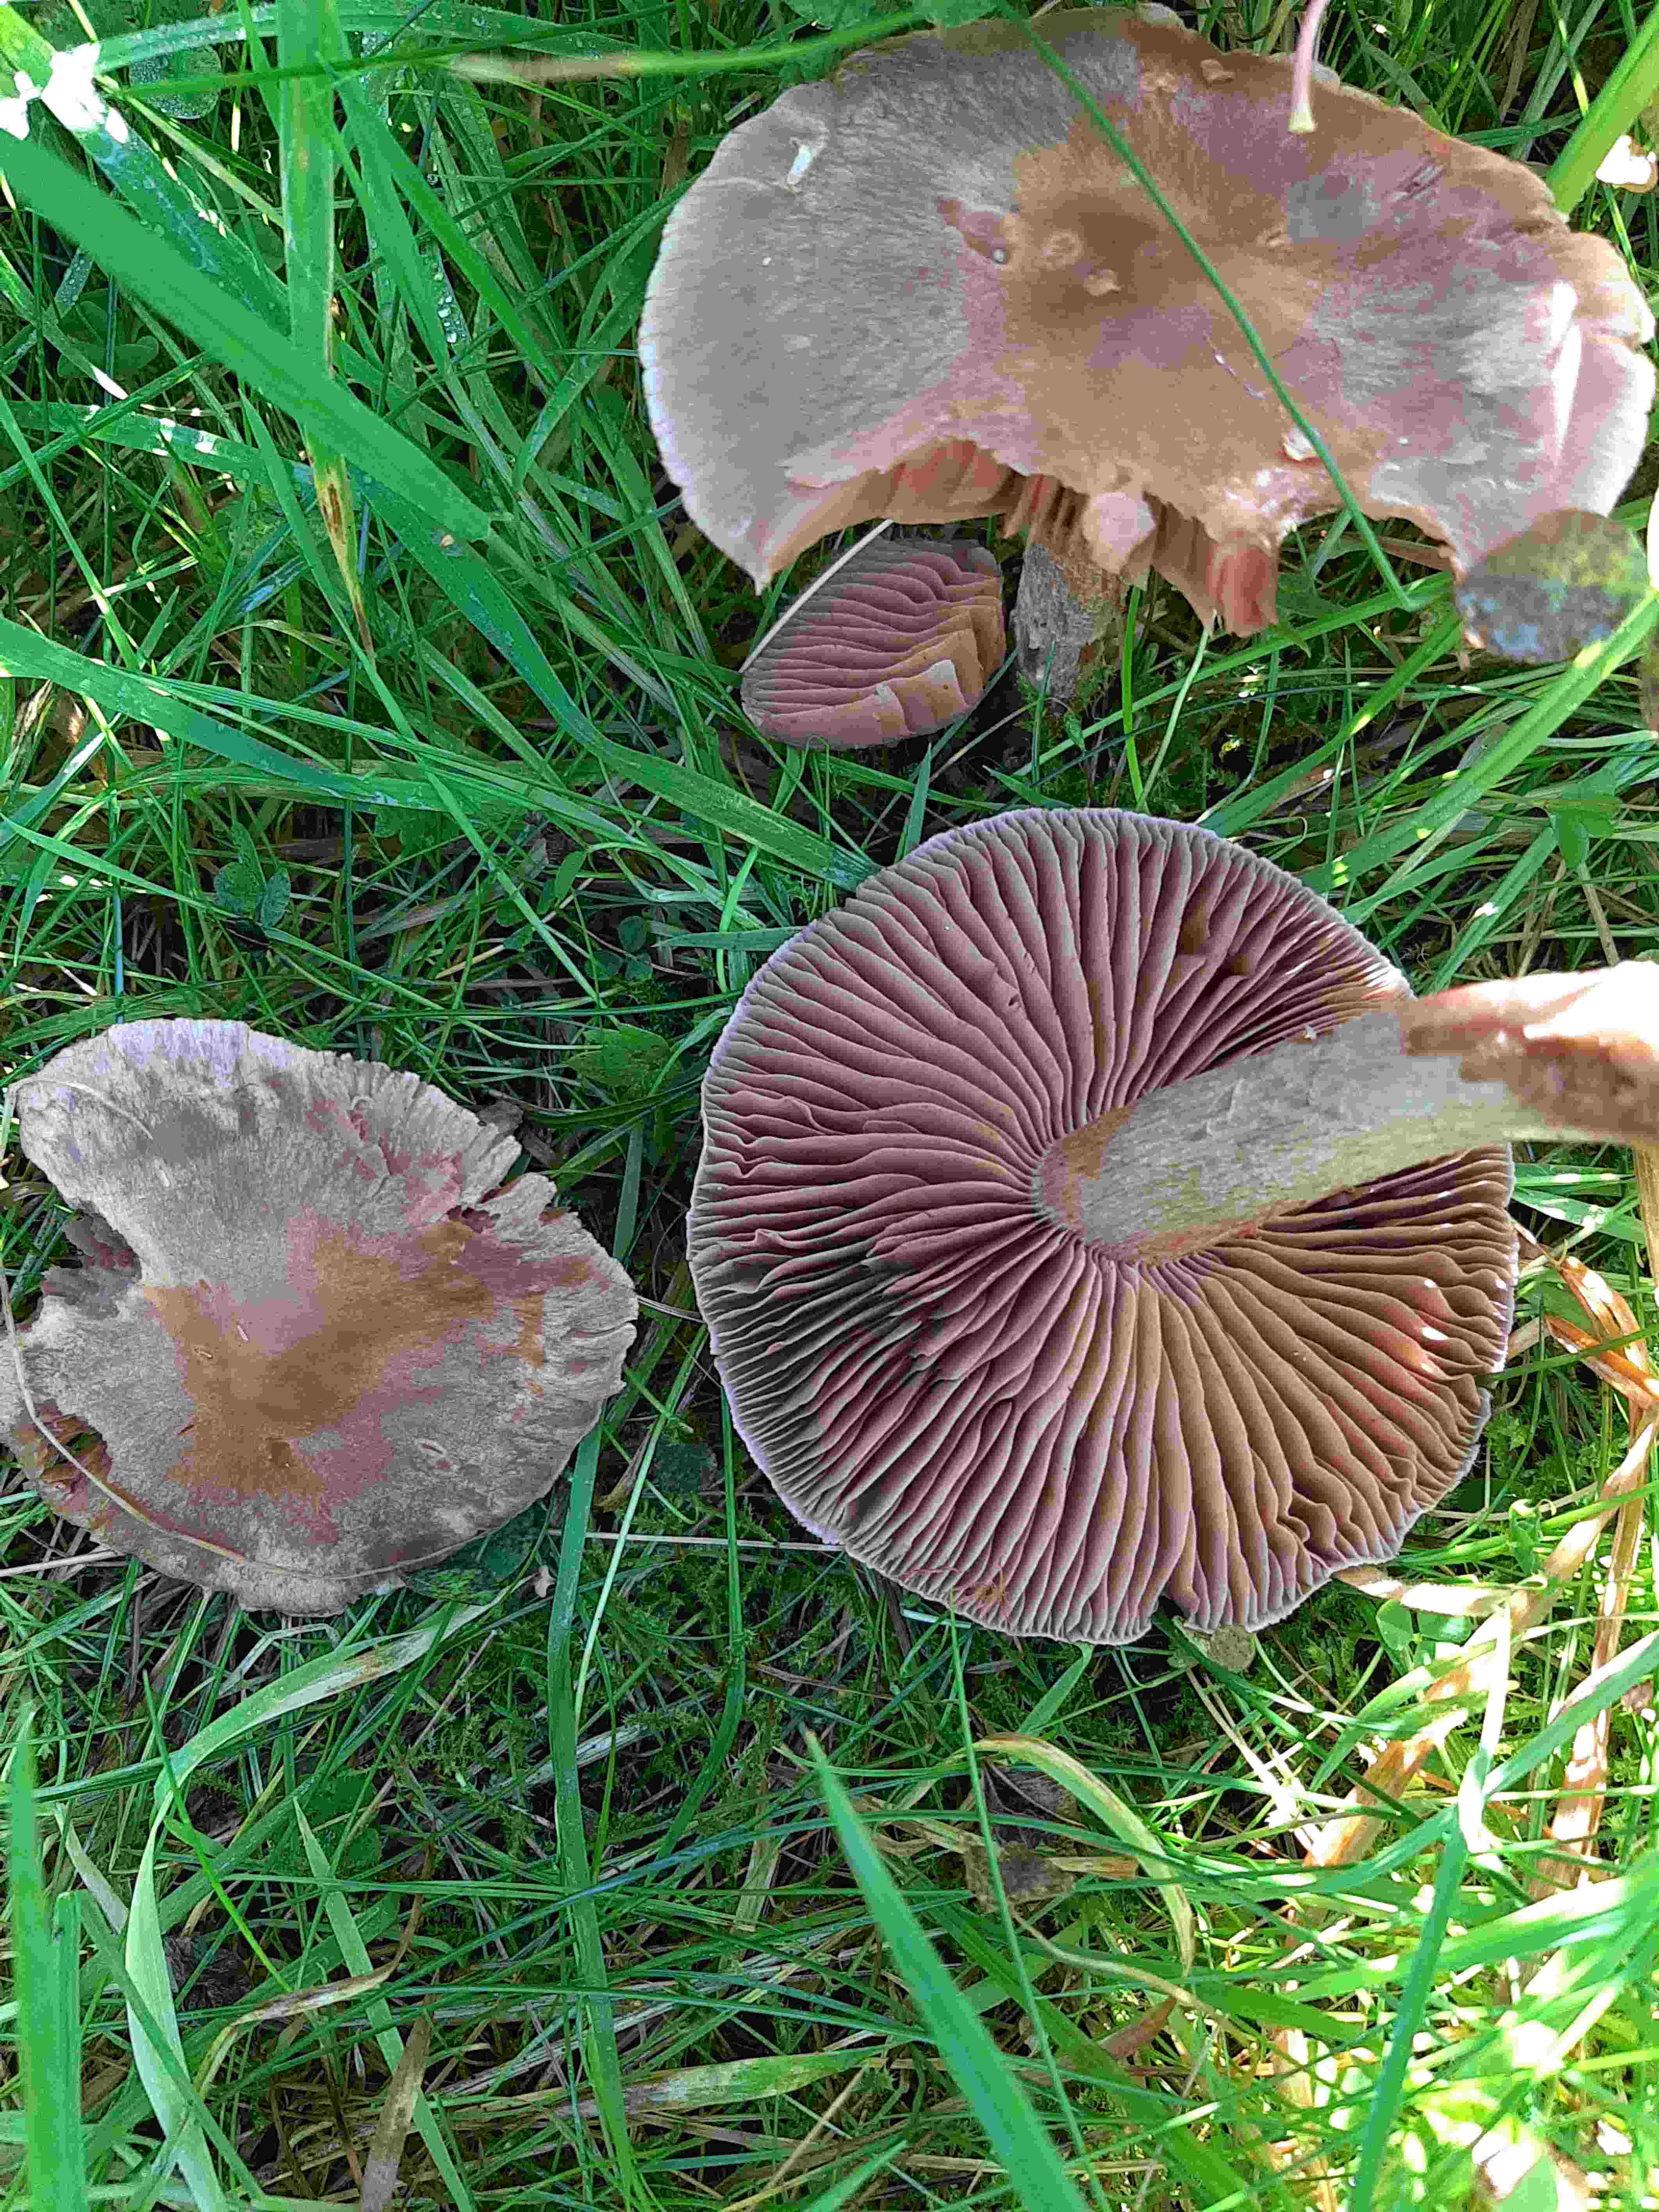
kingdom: Fungi
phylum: Basidiomycota
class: Agaricomycetes
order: Agaricales
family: Cortinariaceae
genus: Cortinarius
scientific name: Cortinarius
